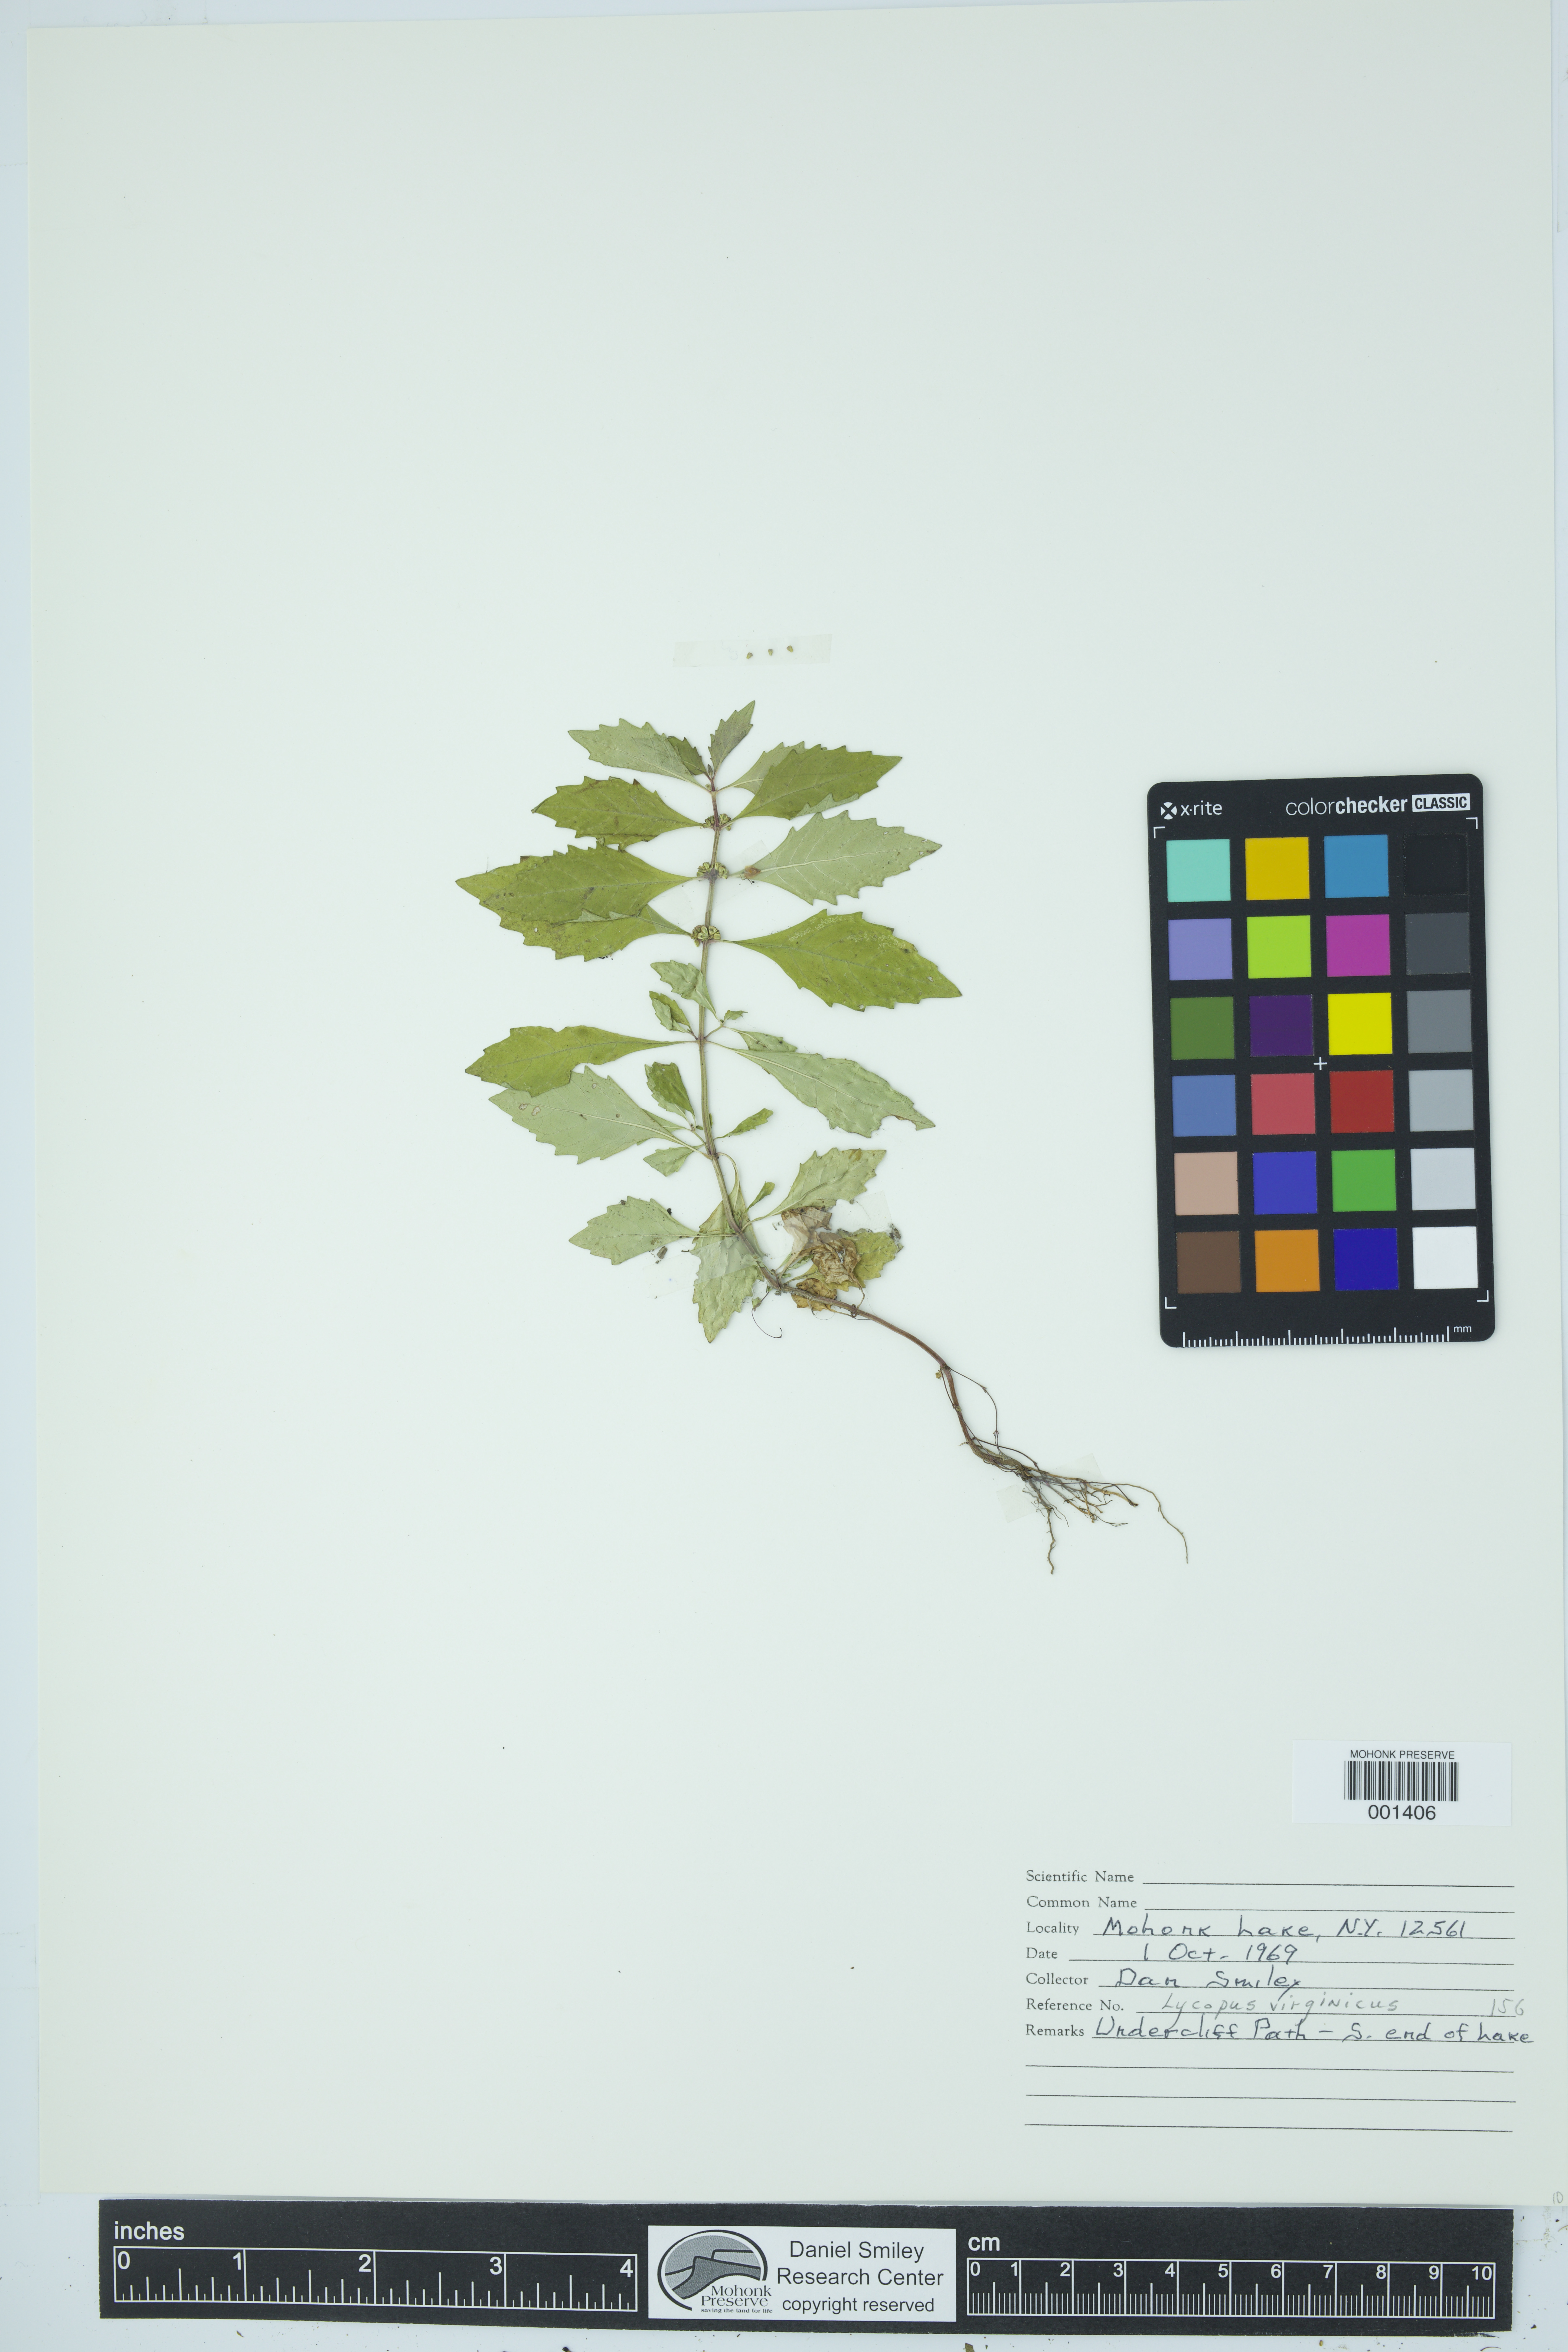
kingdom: Plantae
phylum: Tracheophyta
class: Magnoliopsida
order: Lamiales
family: Lamiaceae
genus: Lycopus
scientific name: Lycopus virginicus
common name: Bugleweed
